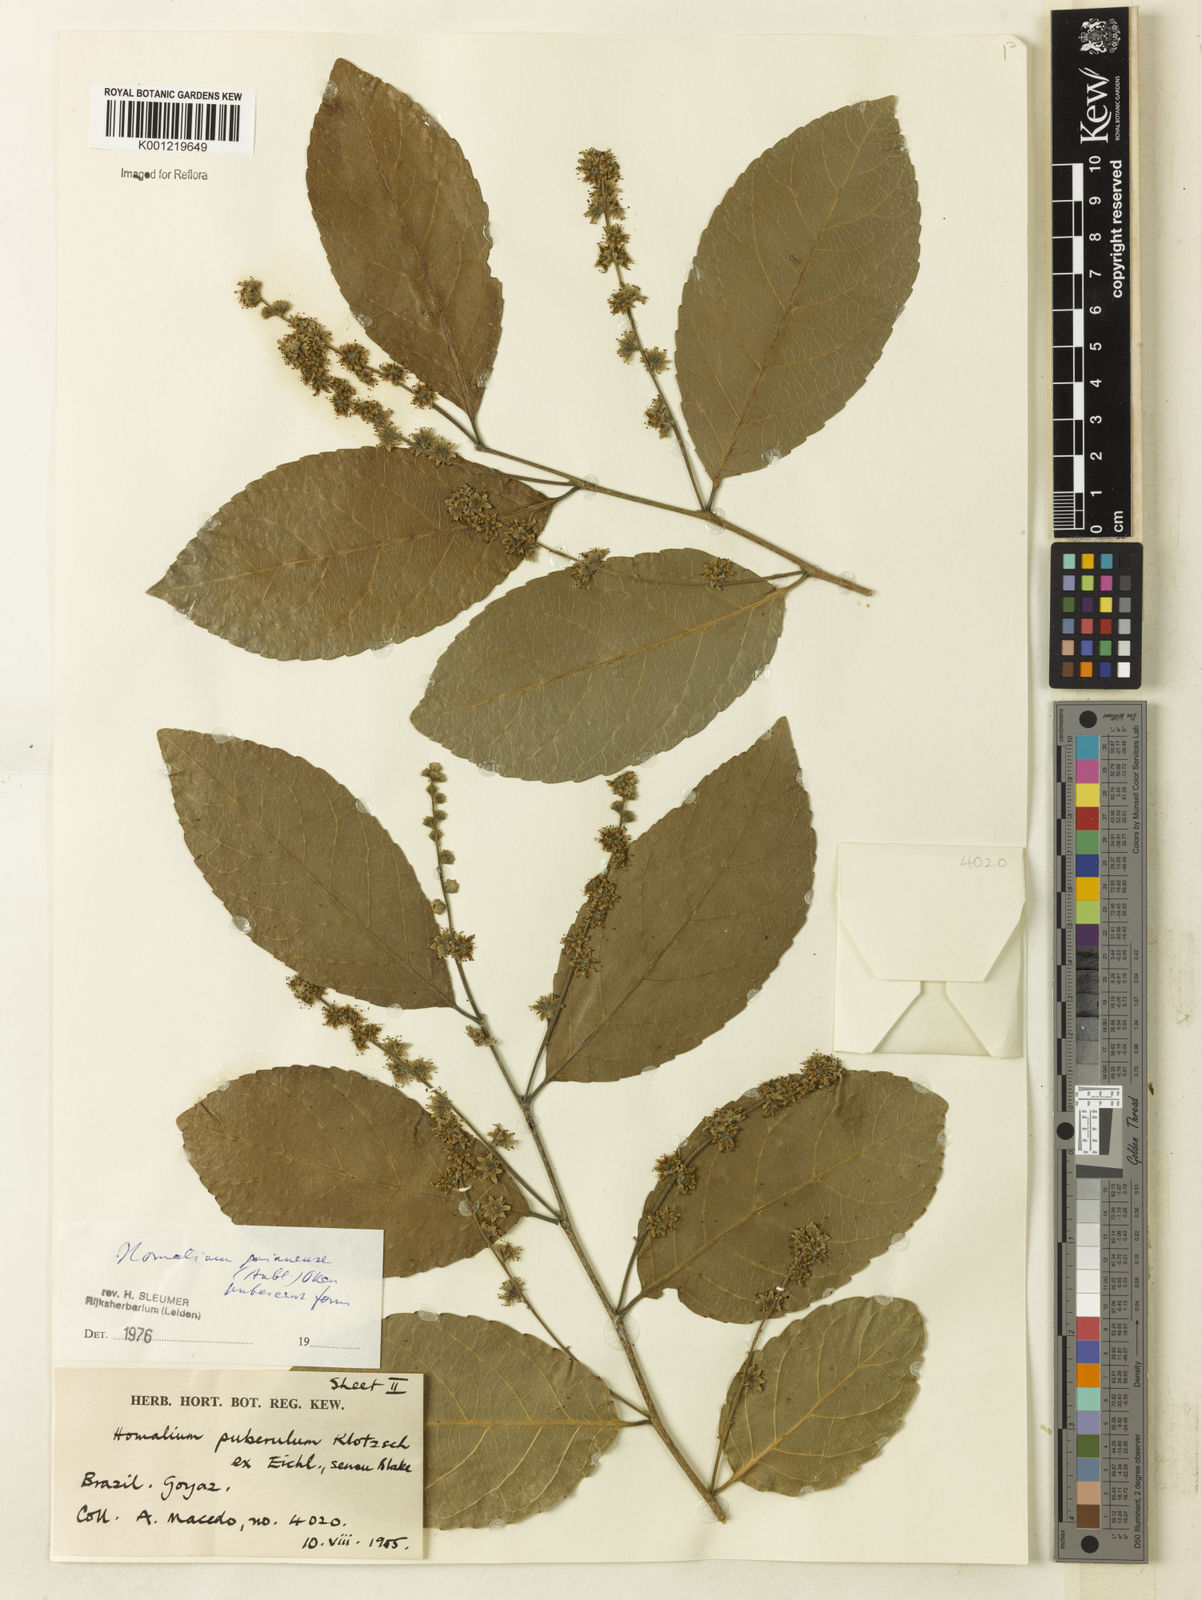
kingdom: Plantae
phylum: Tracheophyta
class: Magnoliopsida
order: Malpighiales
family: Salicaceae
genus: Homalium
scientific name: Homalium guianense
